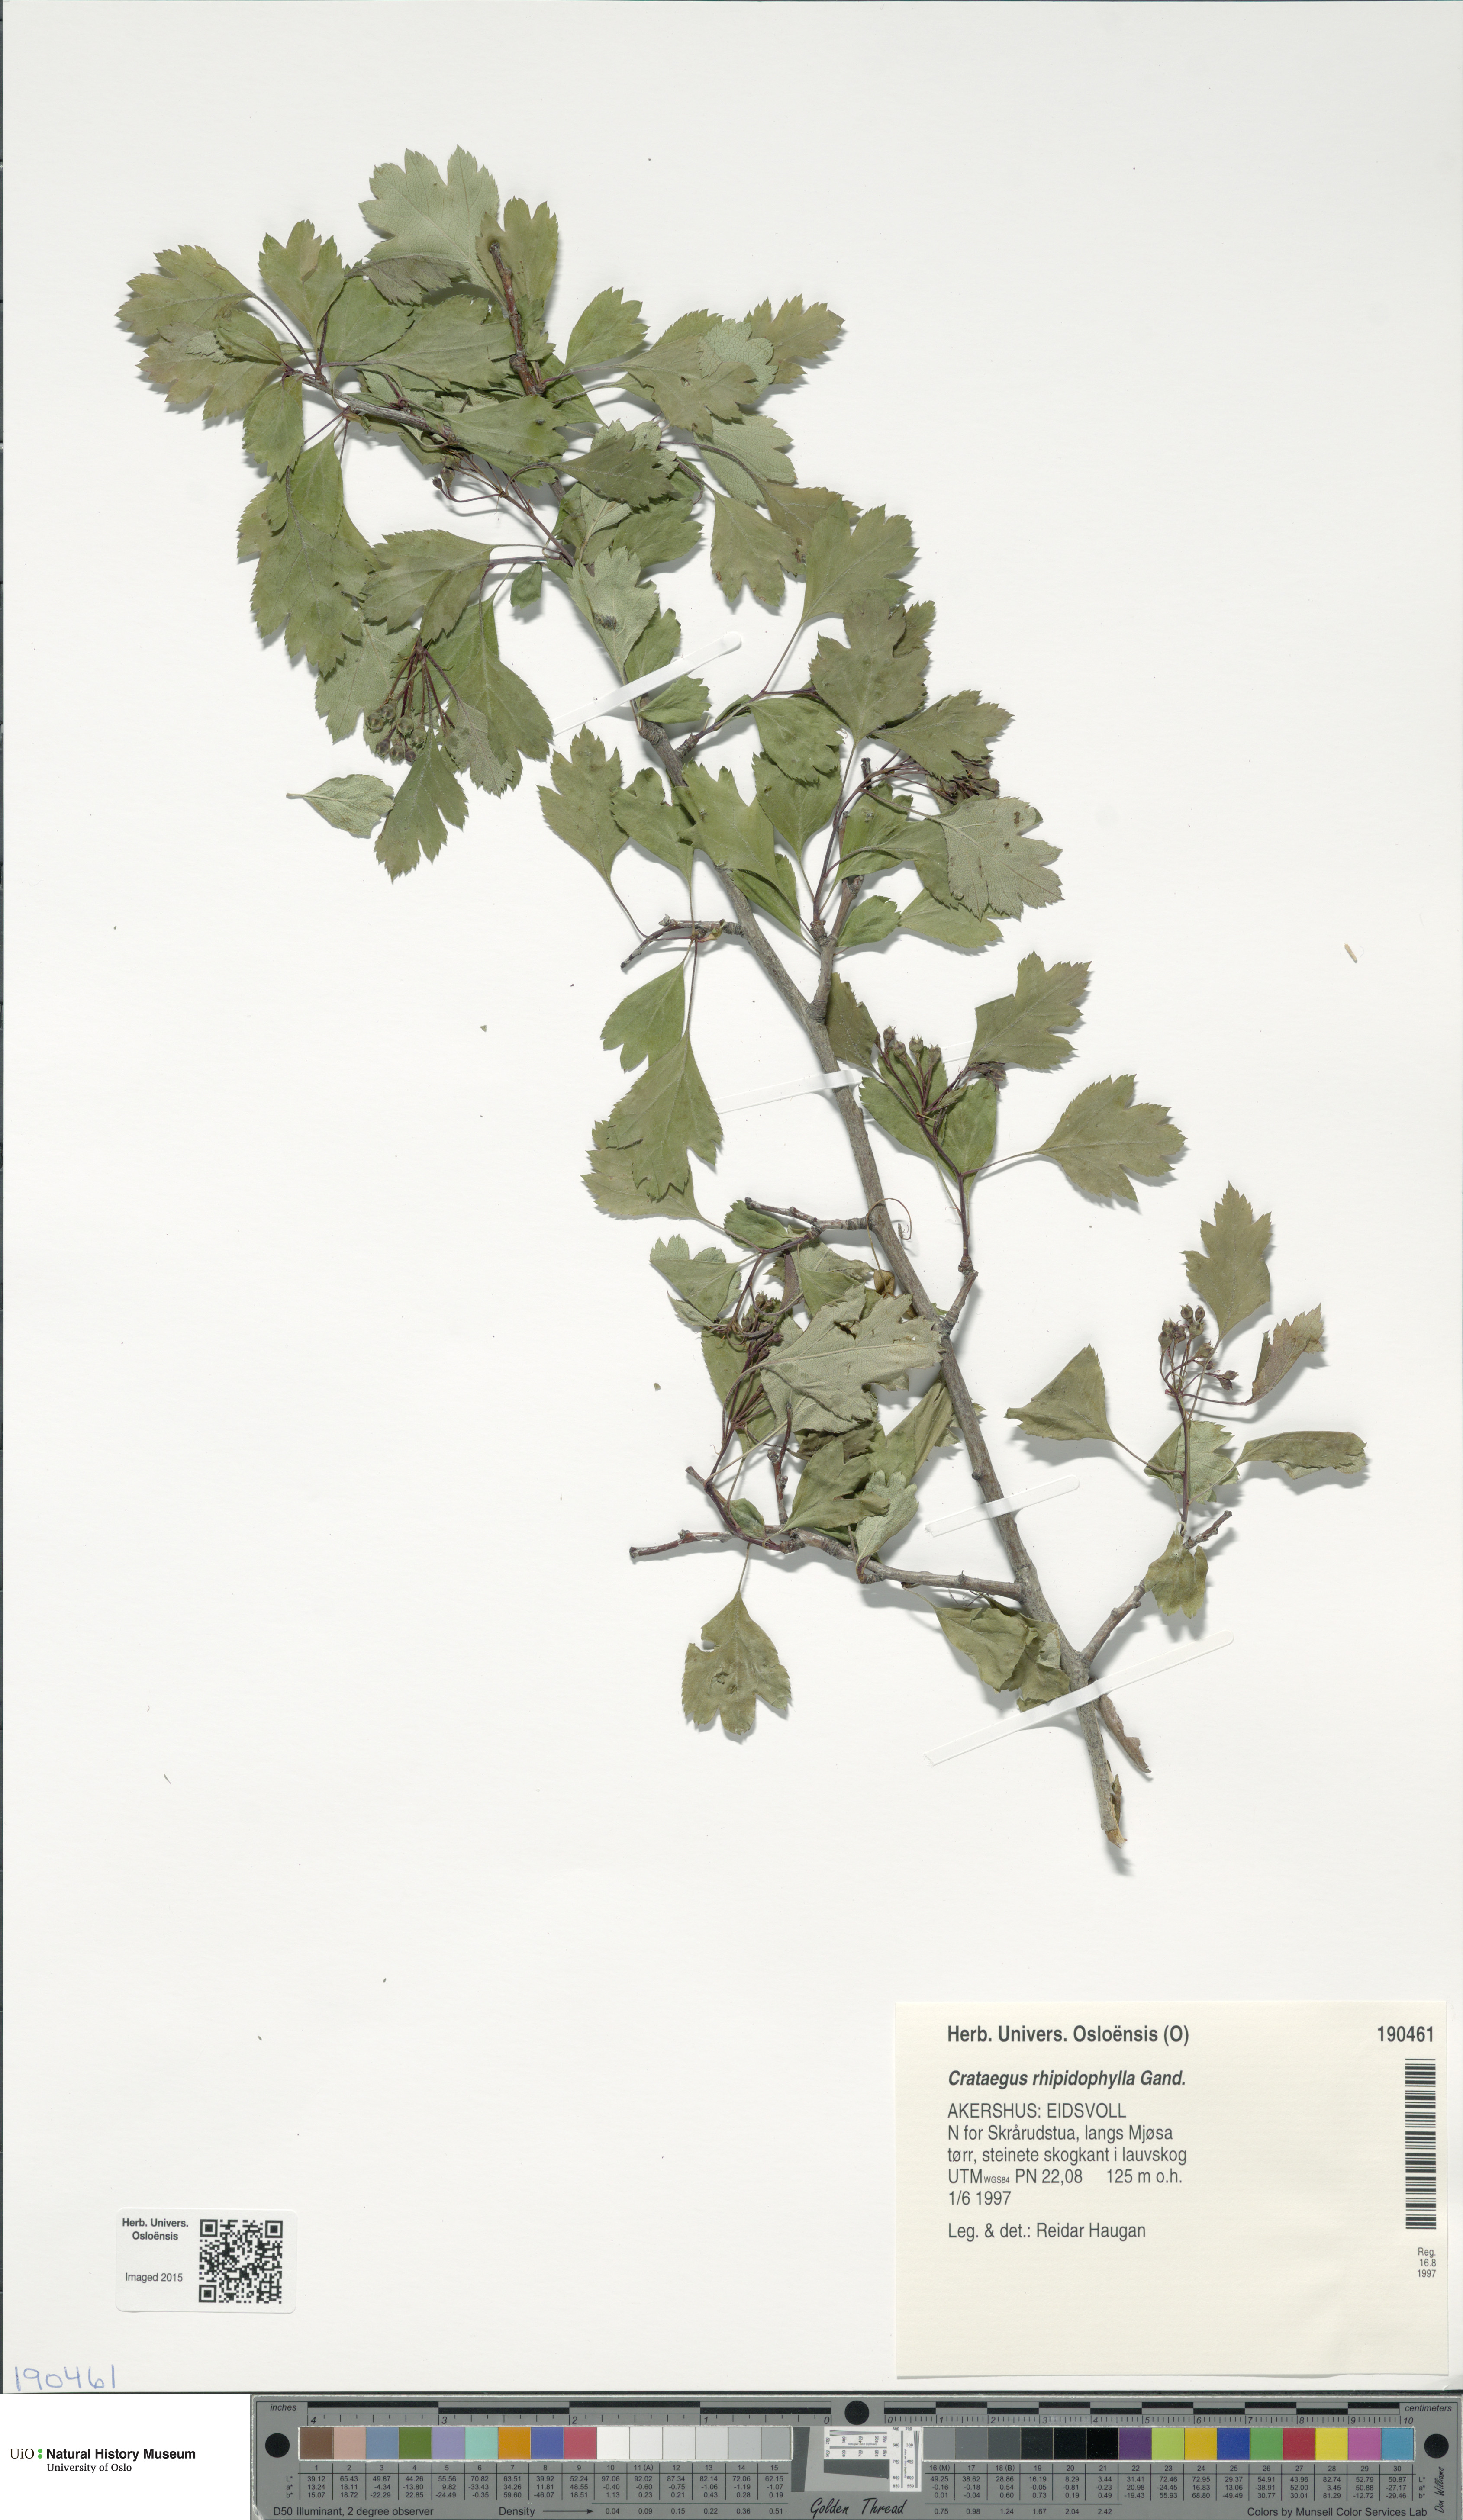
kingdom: Plantae
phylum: Tracheophyta
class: Magnoliopsida
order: Rosales
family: Rosaceae
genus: Crataegus
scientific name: Crataegus rhipidophylla
